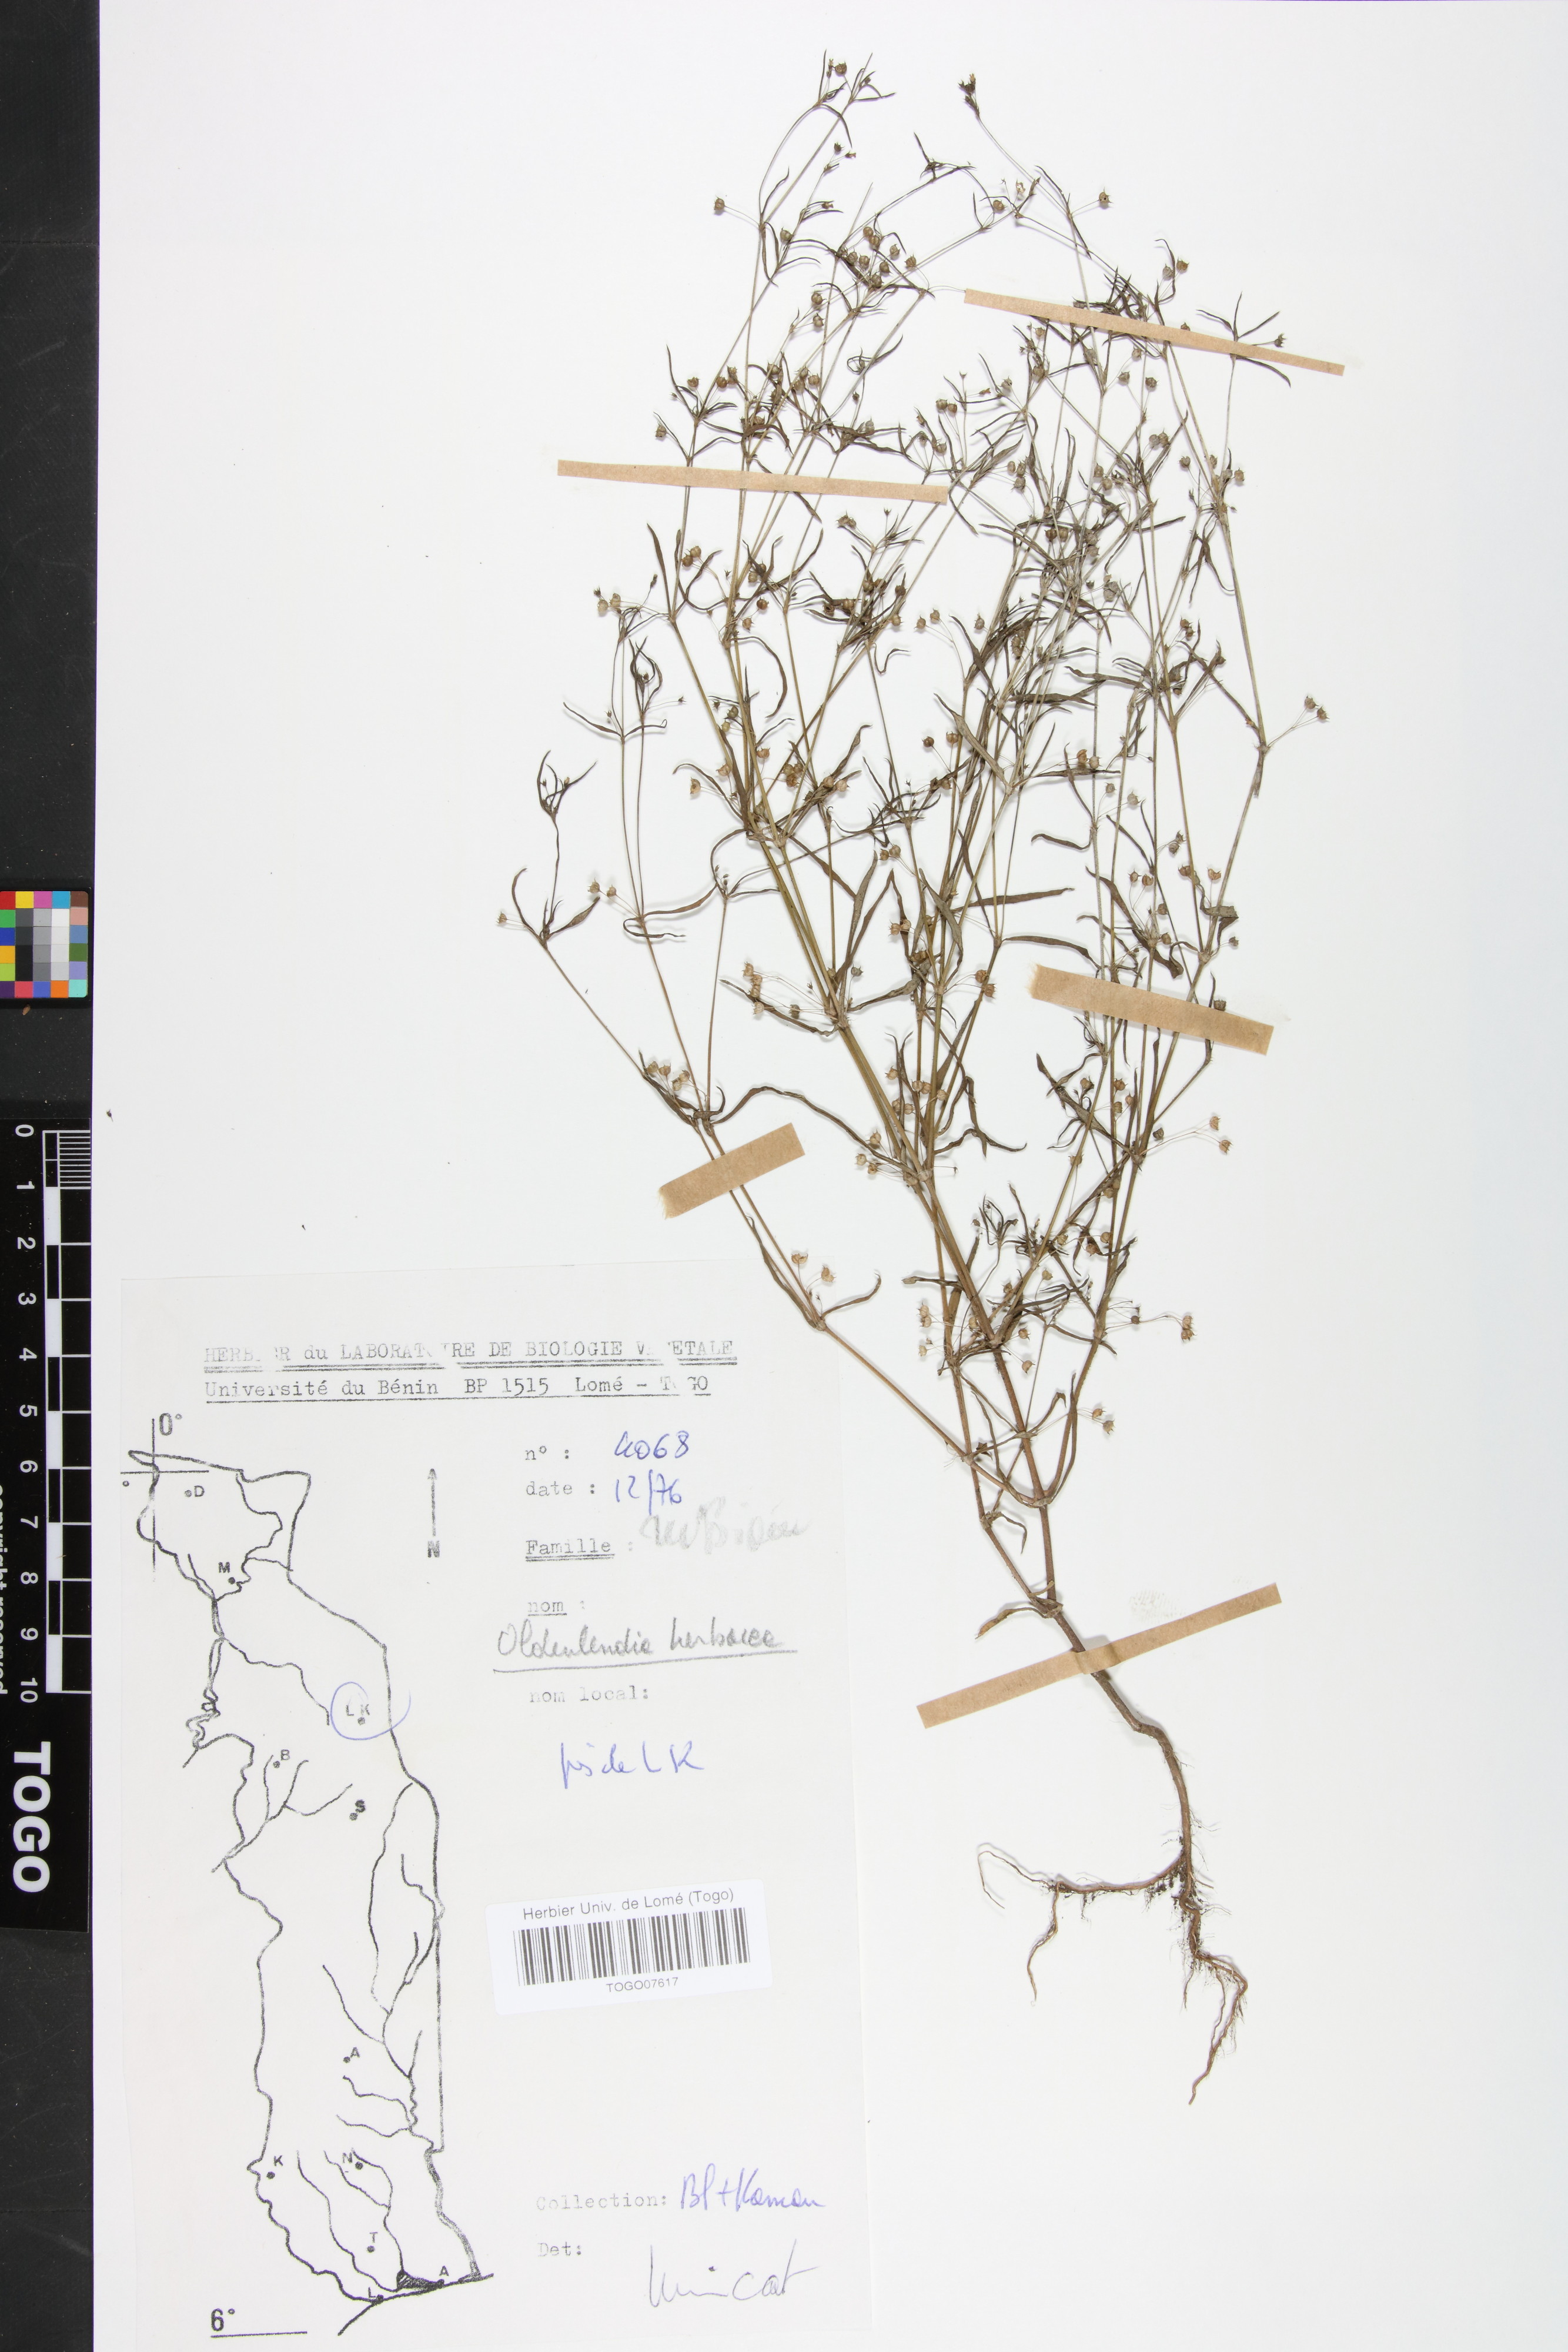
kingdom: Plantae
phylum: Tracheophyta
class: Magnoliopsida
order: Gentianales
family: Rubiaceae
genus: Oldenlandia
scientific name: Oldenlandia herbacea
